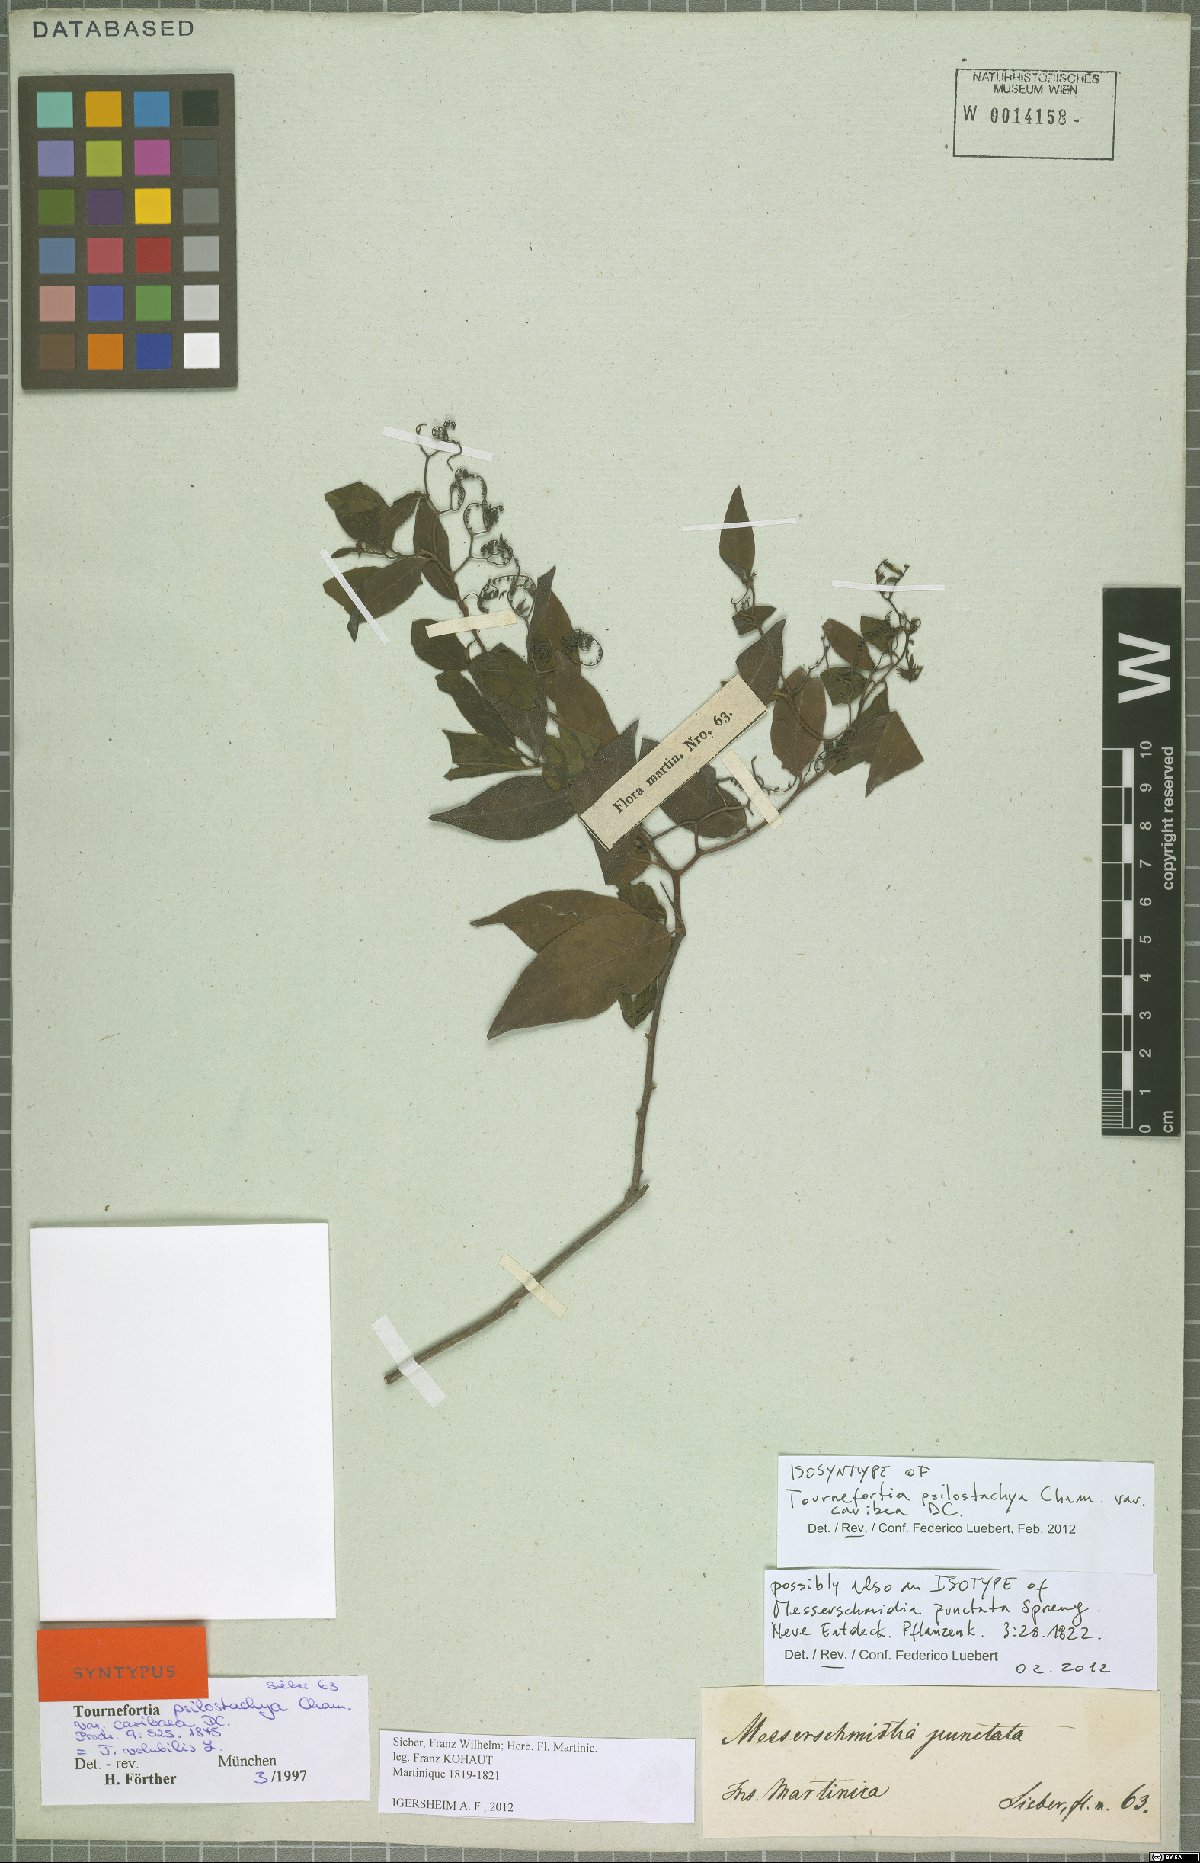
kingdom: Plantae
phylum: Tracheophyta
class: Magnoliopsida
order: Boraginales
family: Heliotropiaceae
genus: Myriopus
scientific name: Myriopus volubilis
